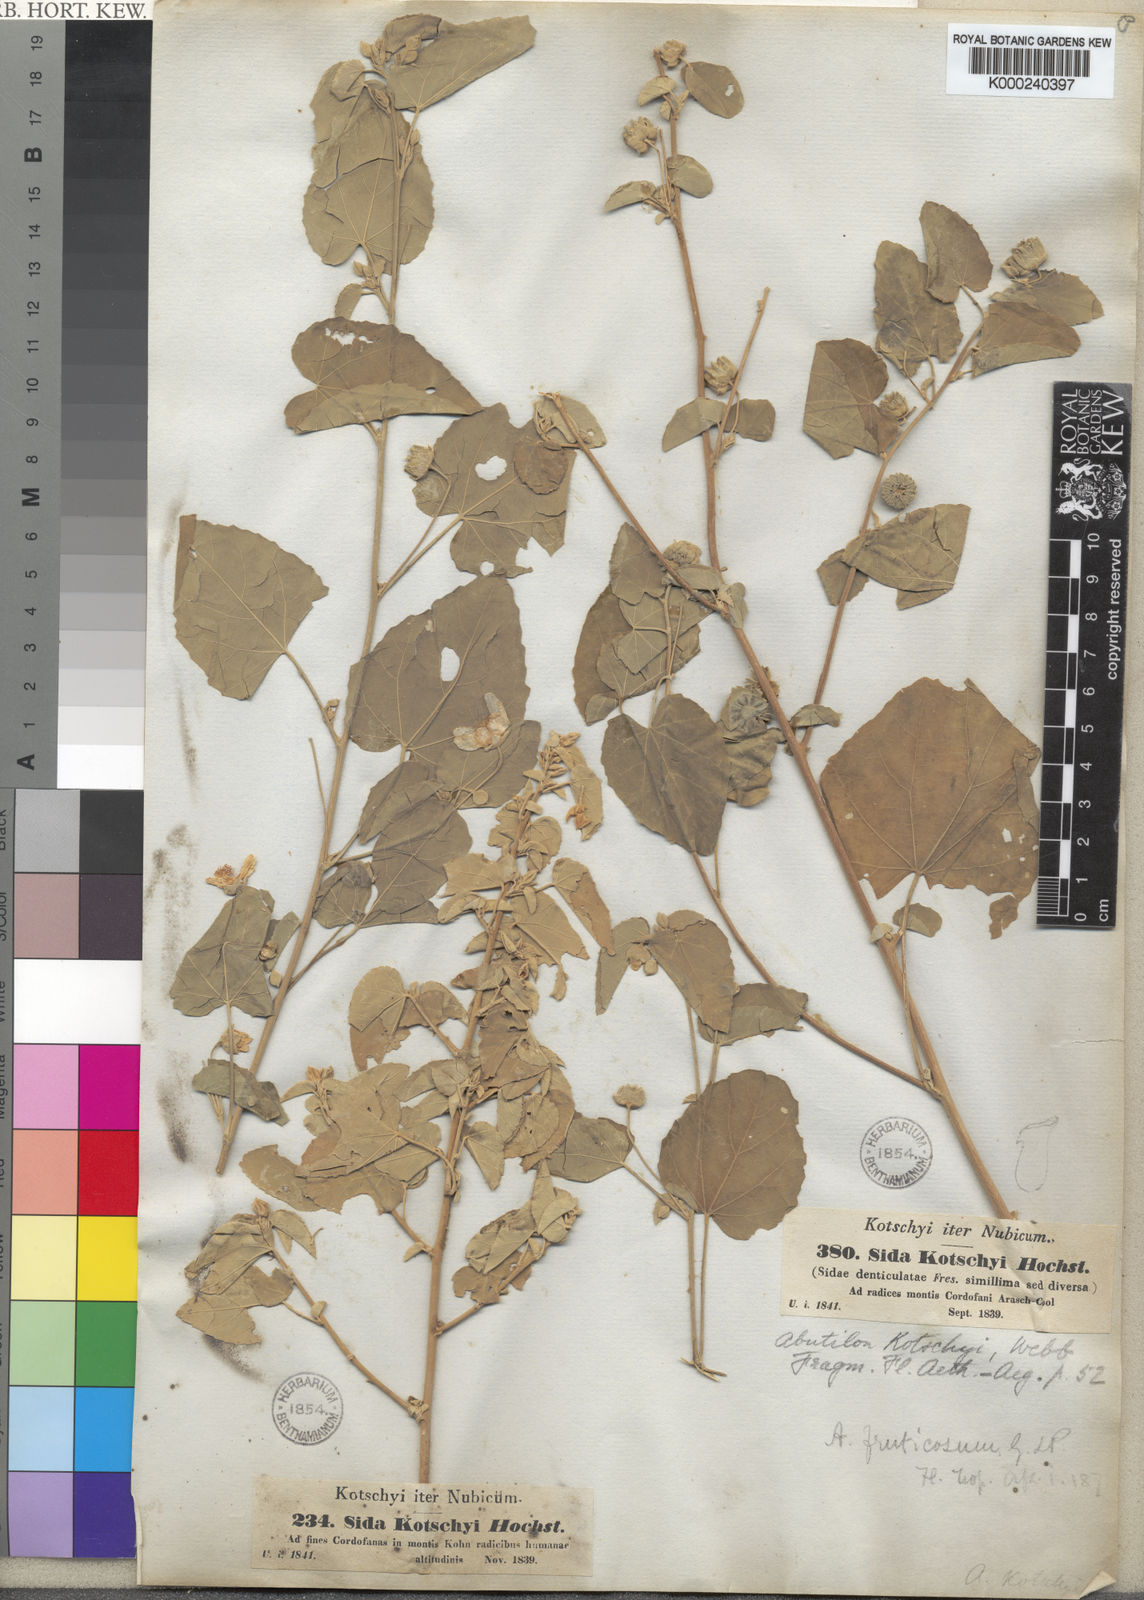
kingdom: Plantae
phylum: Tracheophyta
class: Magnoliopsida
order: Malvales
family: Malvaceae
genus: Abutilon
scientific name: Abutilon fruticosum
